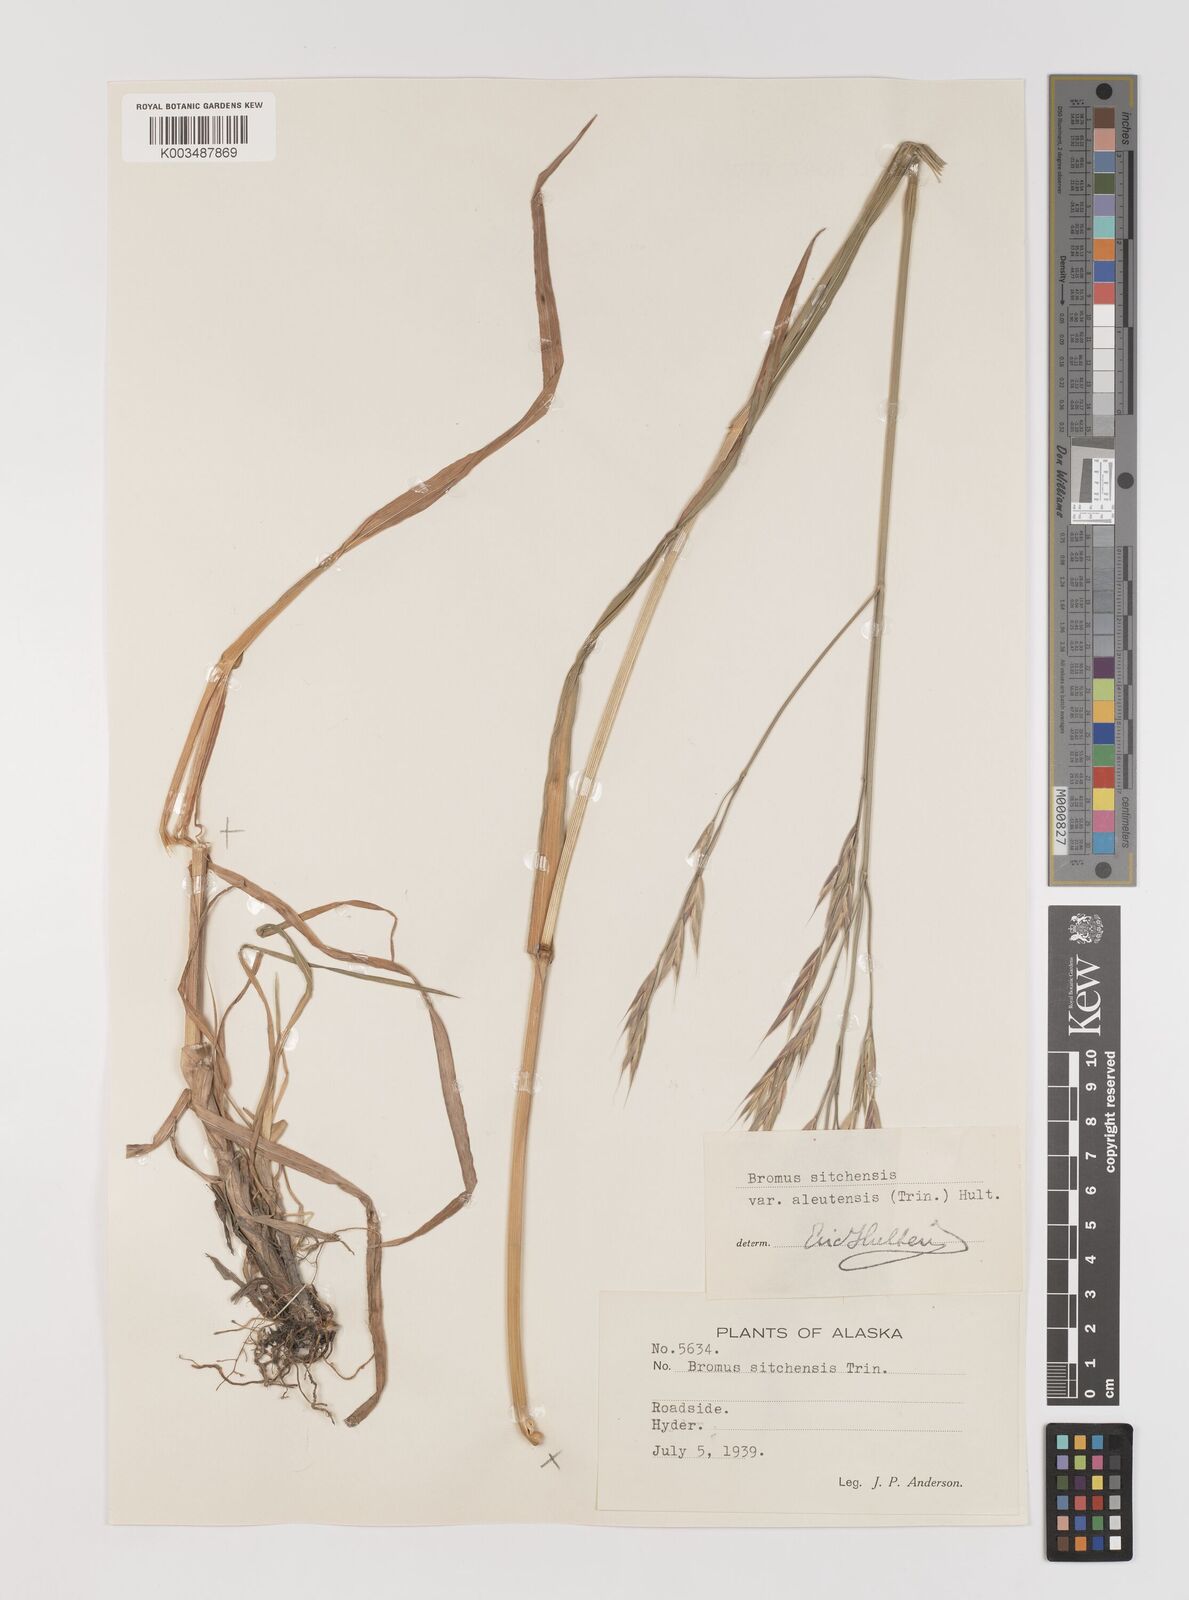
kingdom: Plantae
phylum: Tracheophyta
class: Liliopsida
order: Poales
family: Poaceae
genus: Bromus
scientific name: Bromus sitchensis
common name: Sitka brome
